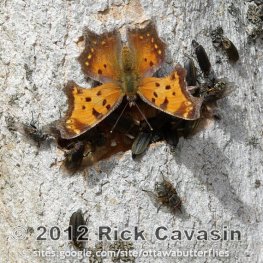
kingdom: Animalia
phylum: Arthropoda
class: Insecta
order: Lepidoptera
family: Nymphalidae
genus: Polygonia
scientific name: Polygonia progne
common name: Gray Comma
